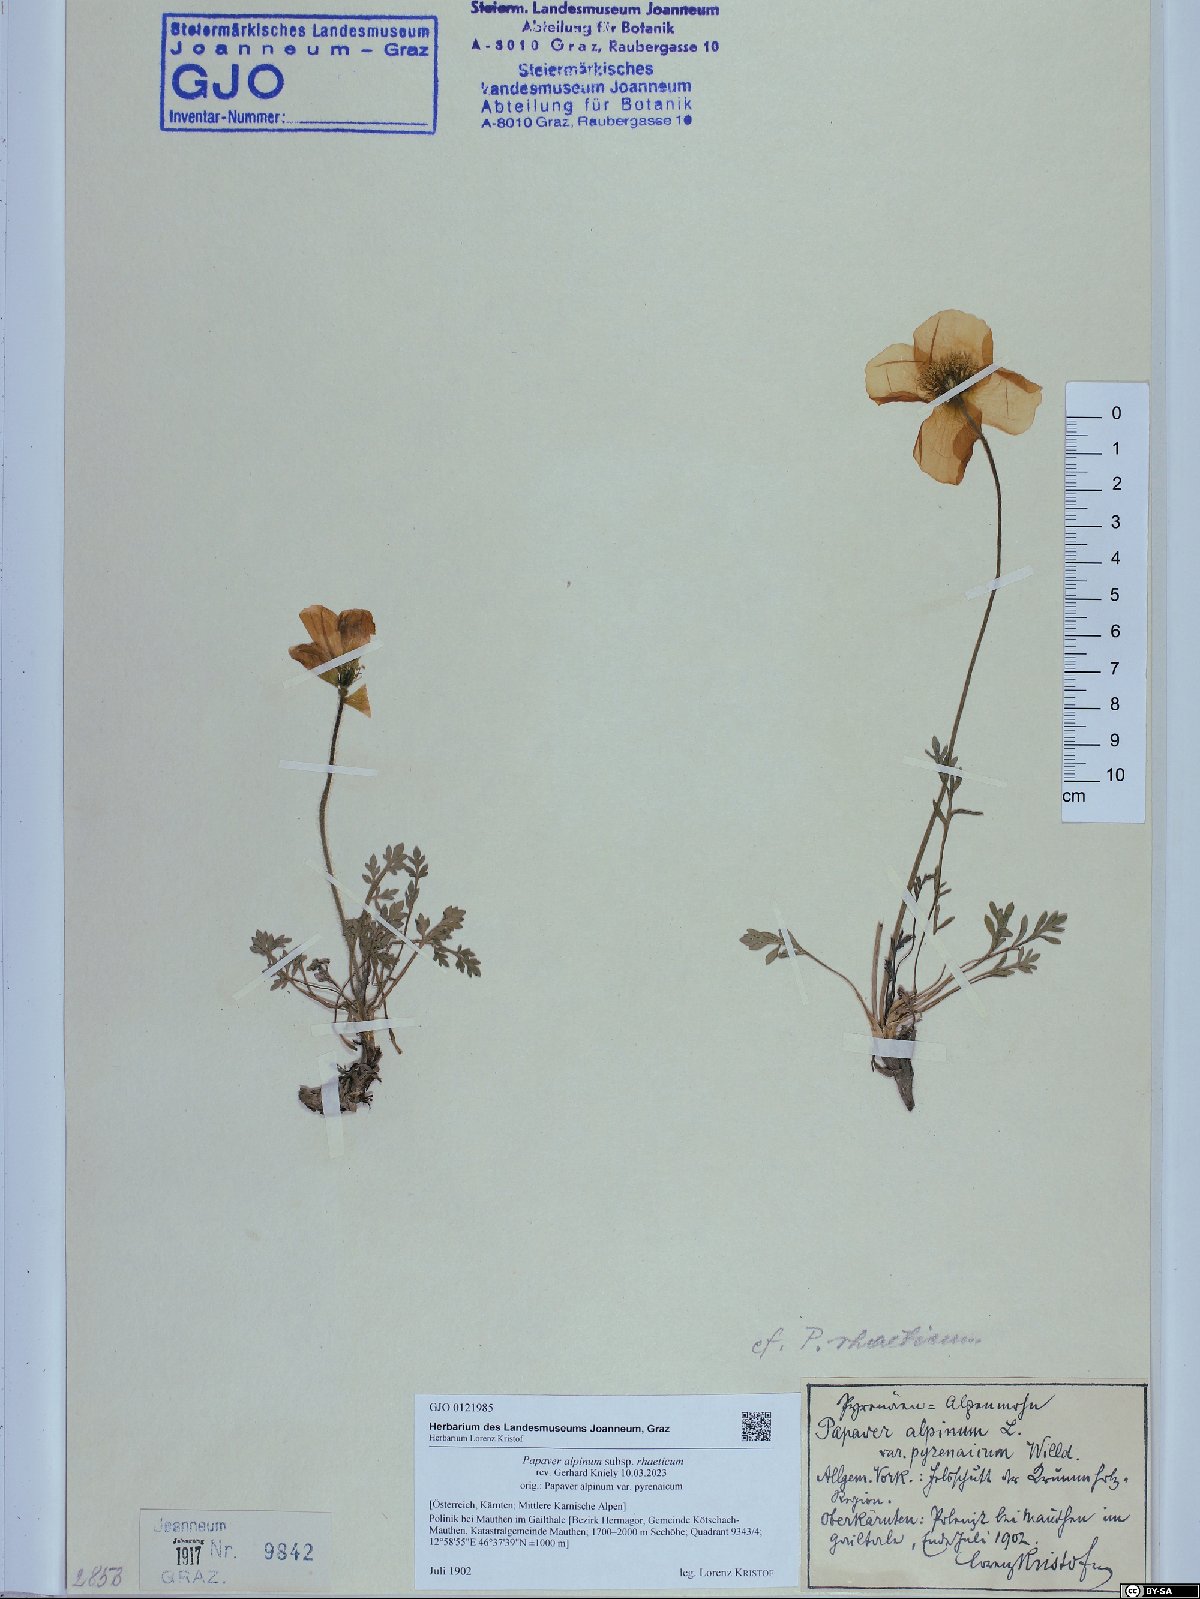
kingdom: Plantae
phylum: Tracheophyta
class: Magnoliopsida
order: Ranunculales
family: Papaveraceae
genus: Papaver
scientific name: Papaver alpinum
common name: Austrian poppy
